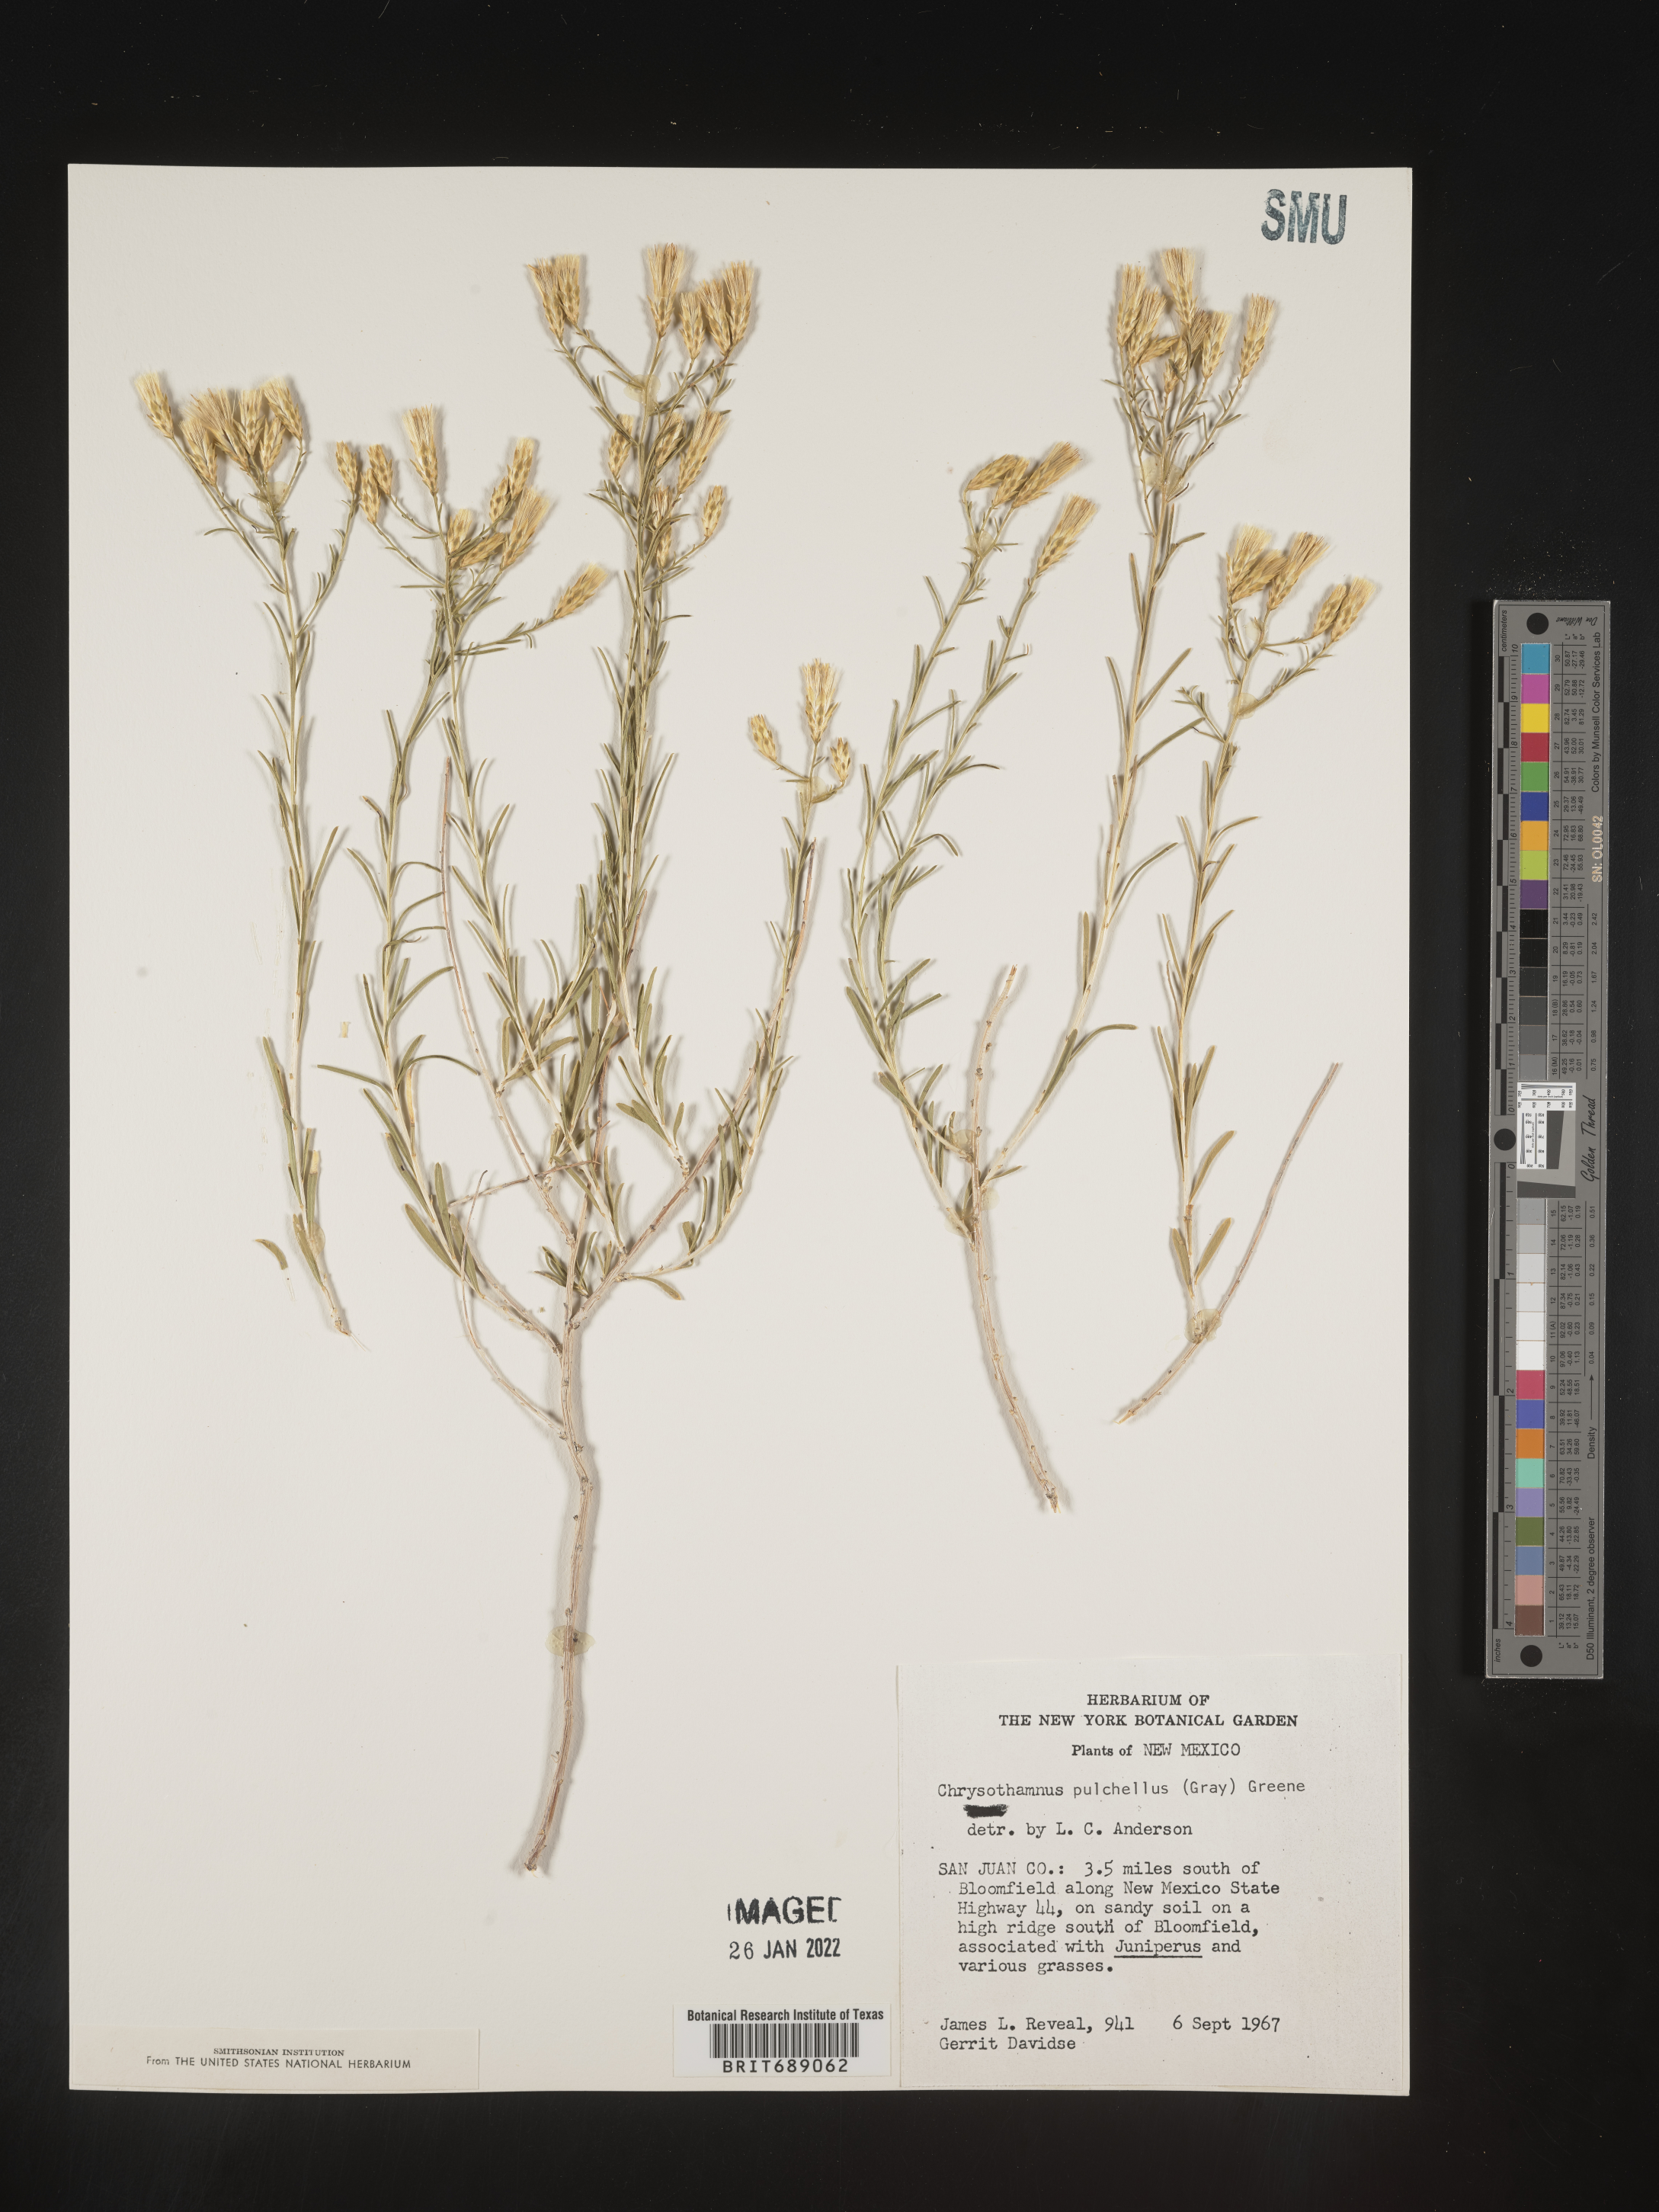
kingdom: Plantae
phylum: Tracheophyta
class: Magnoliopsida
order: Asterales
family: Asteraceae
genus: Lorandersonia
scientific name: Lorandersonia pulchella
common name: Southwestern rabbitbrush
